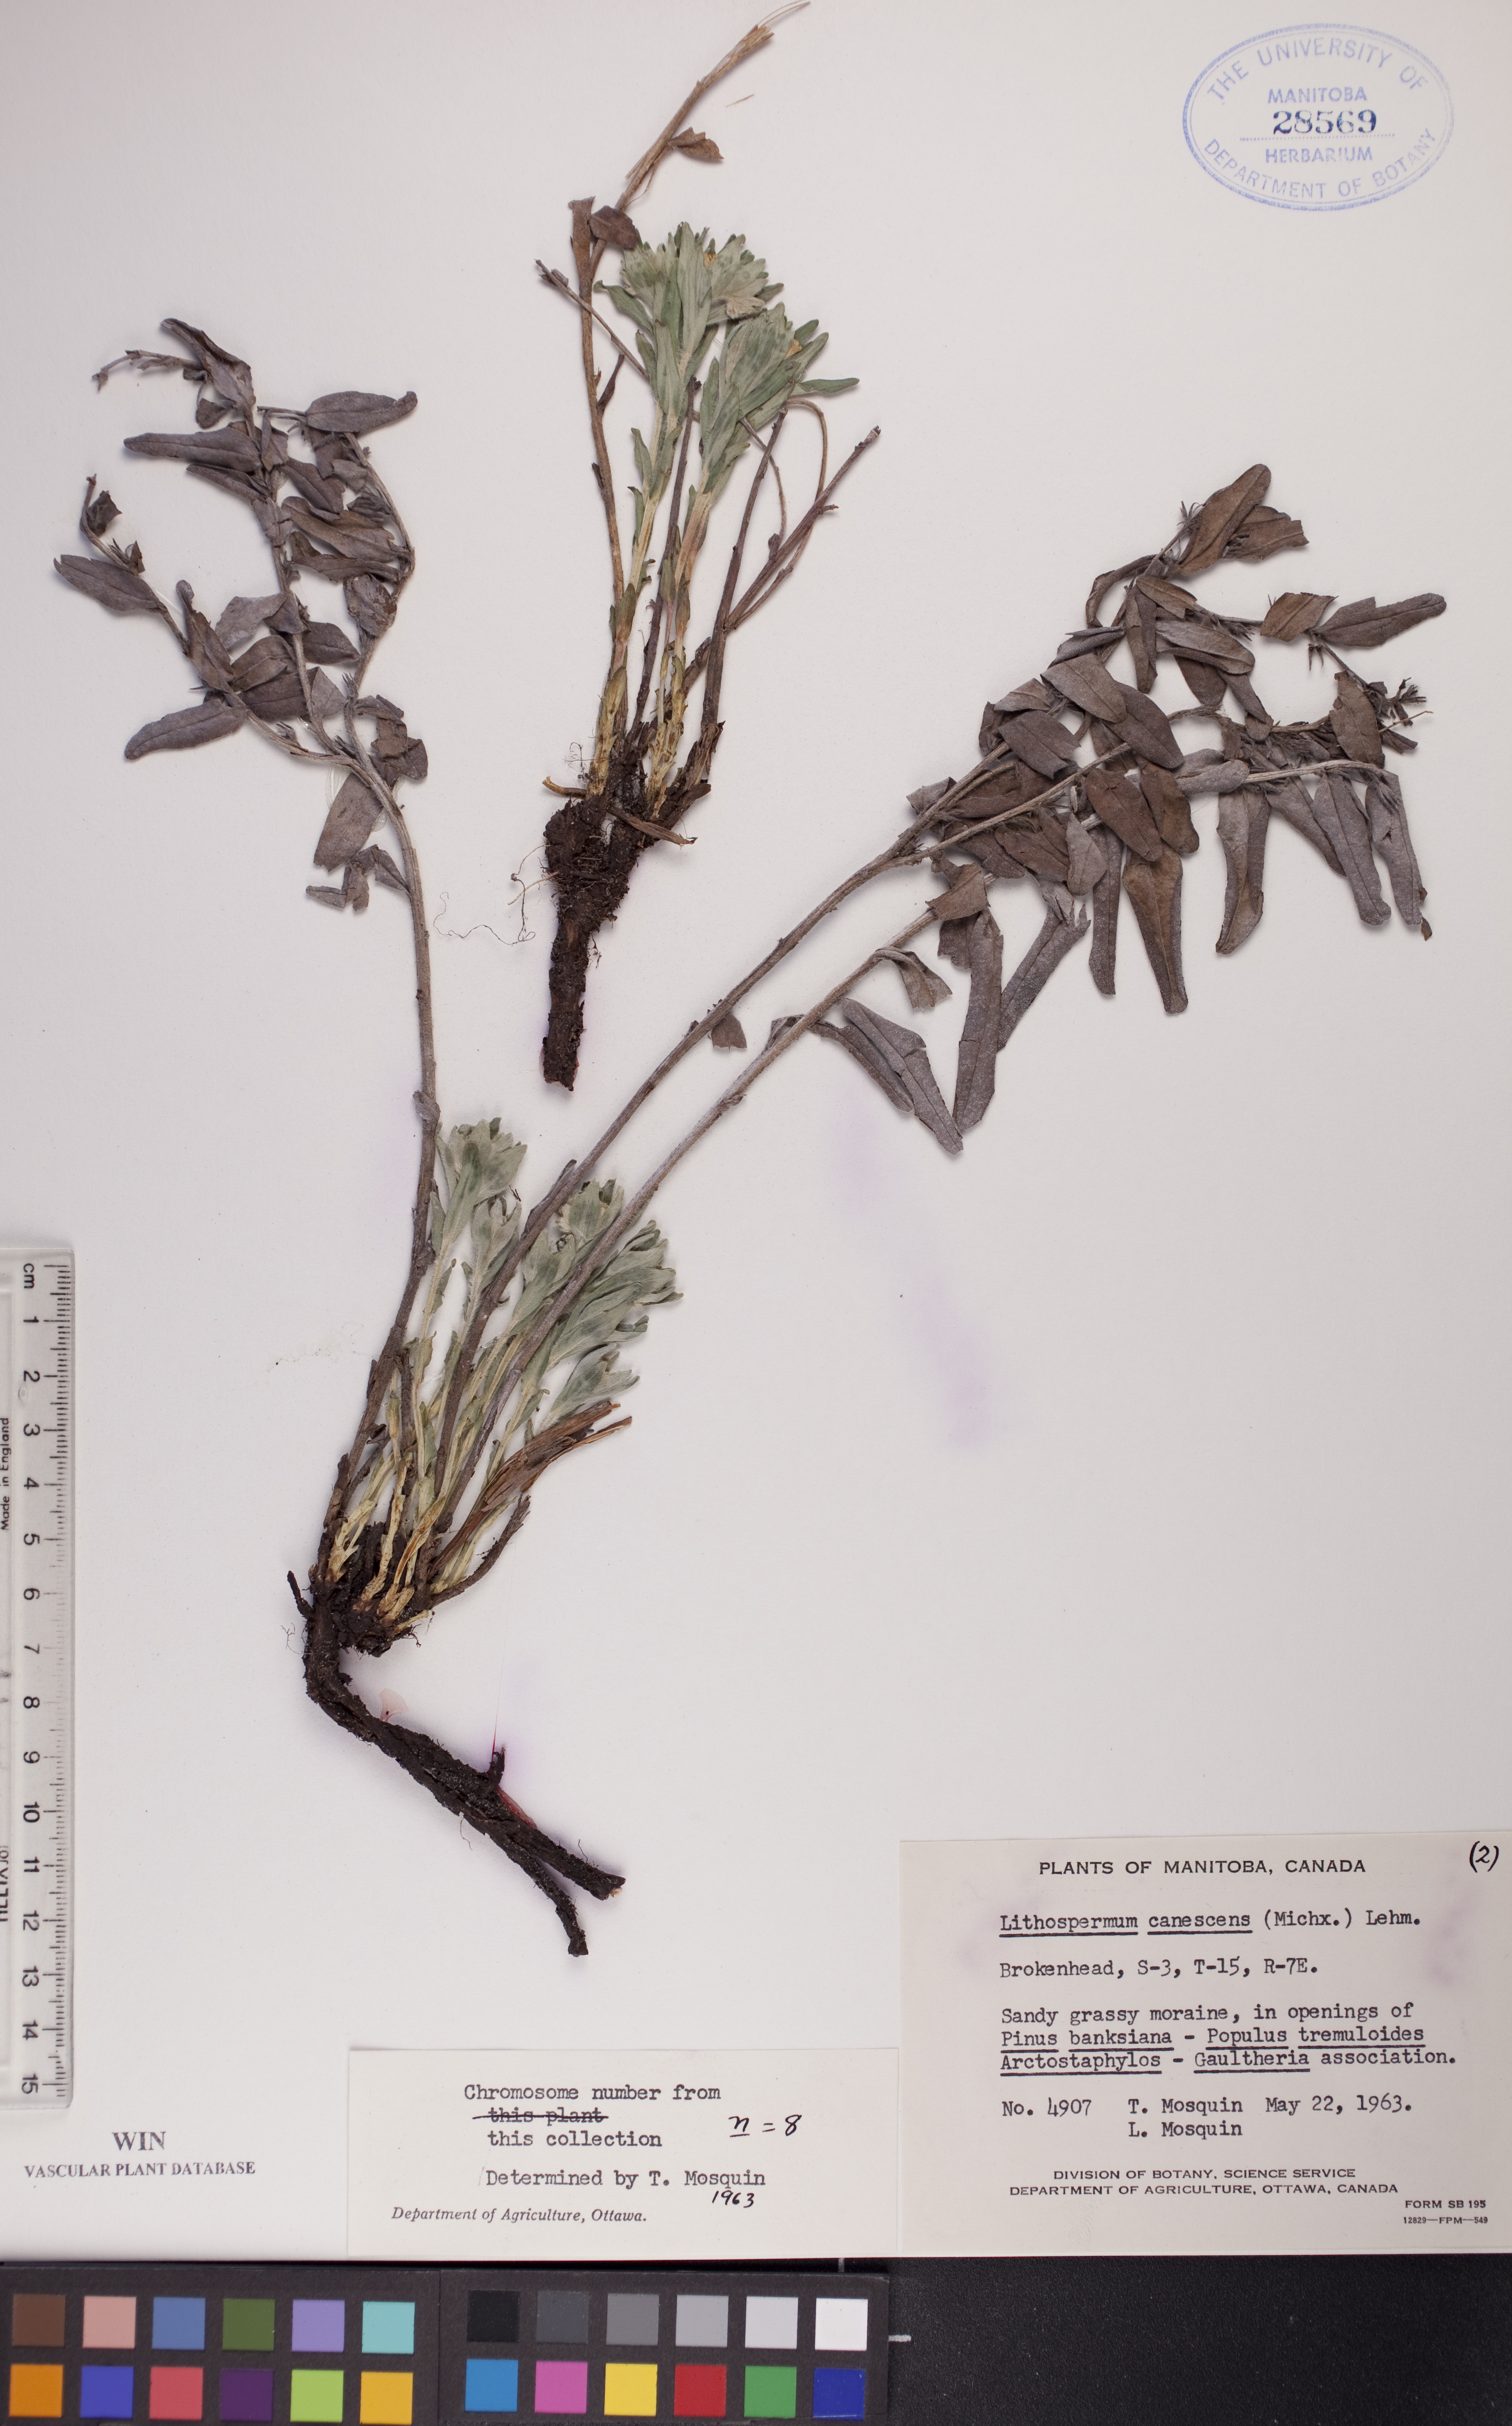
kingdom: Plantae
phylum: Tracheophyta
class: Magnoliopsida
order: Boraginales
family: Boraginaceae
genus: Lithospermum
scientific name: Lithospermum canescens
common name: Hoary puccoon
